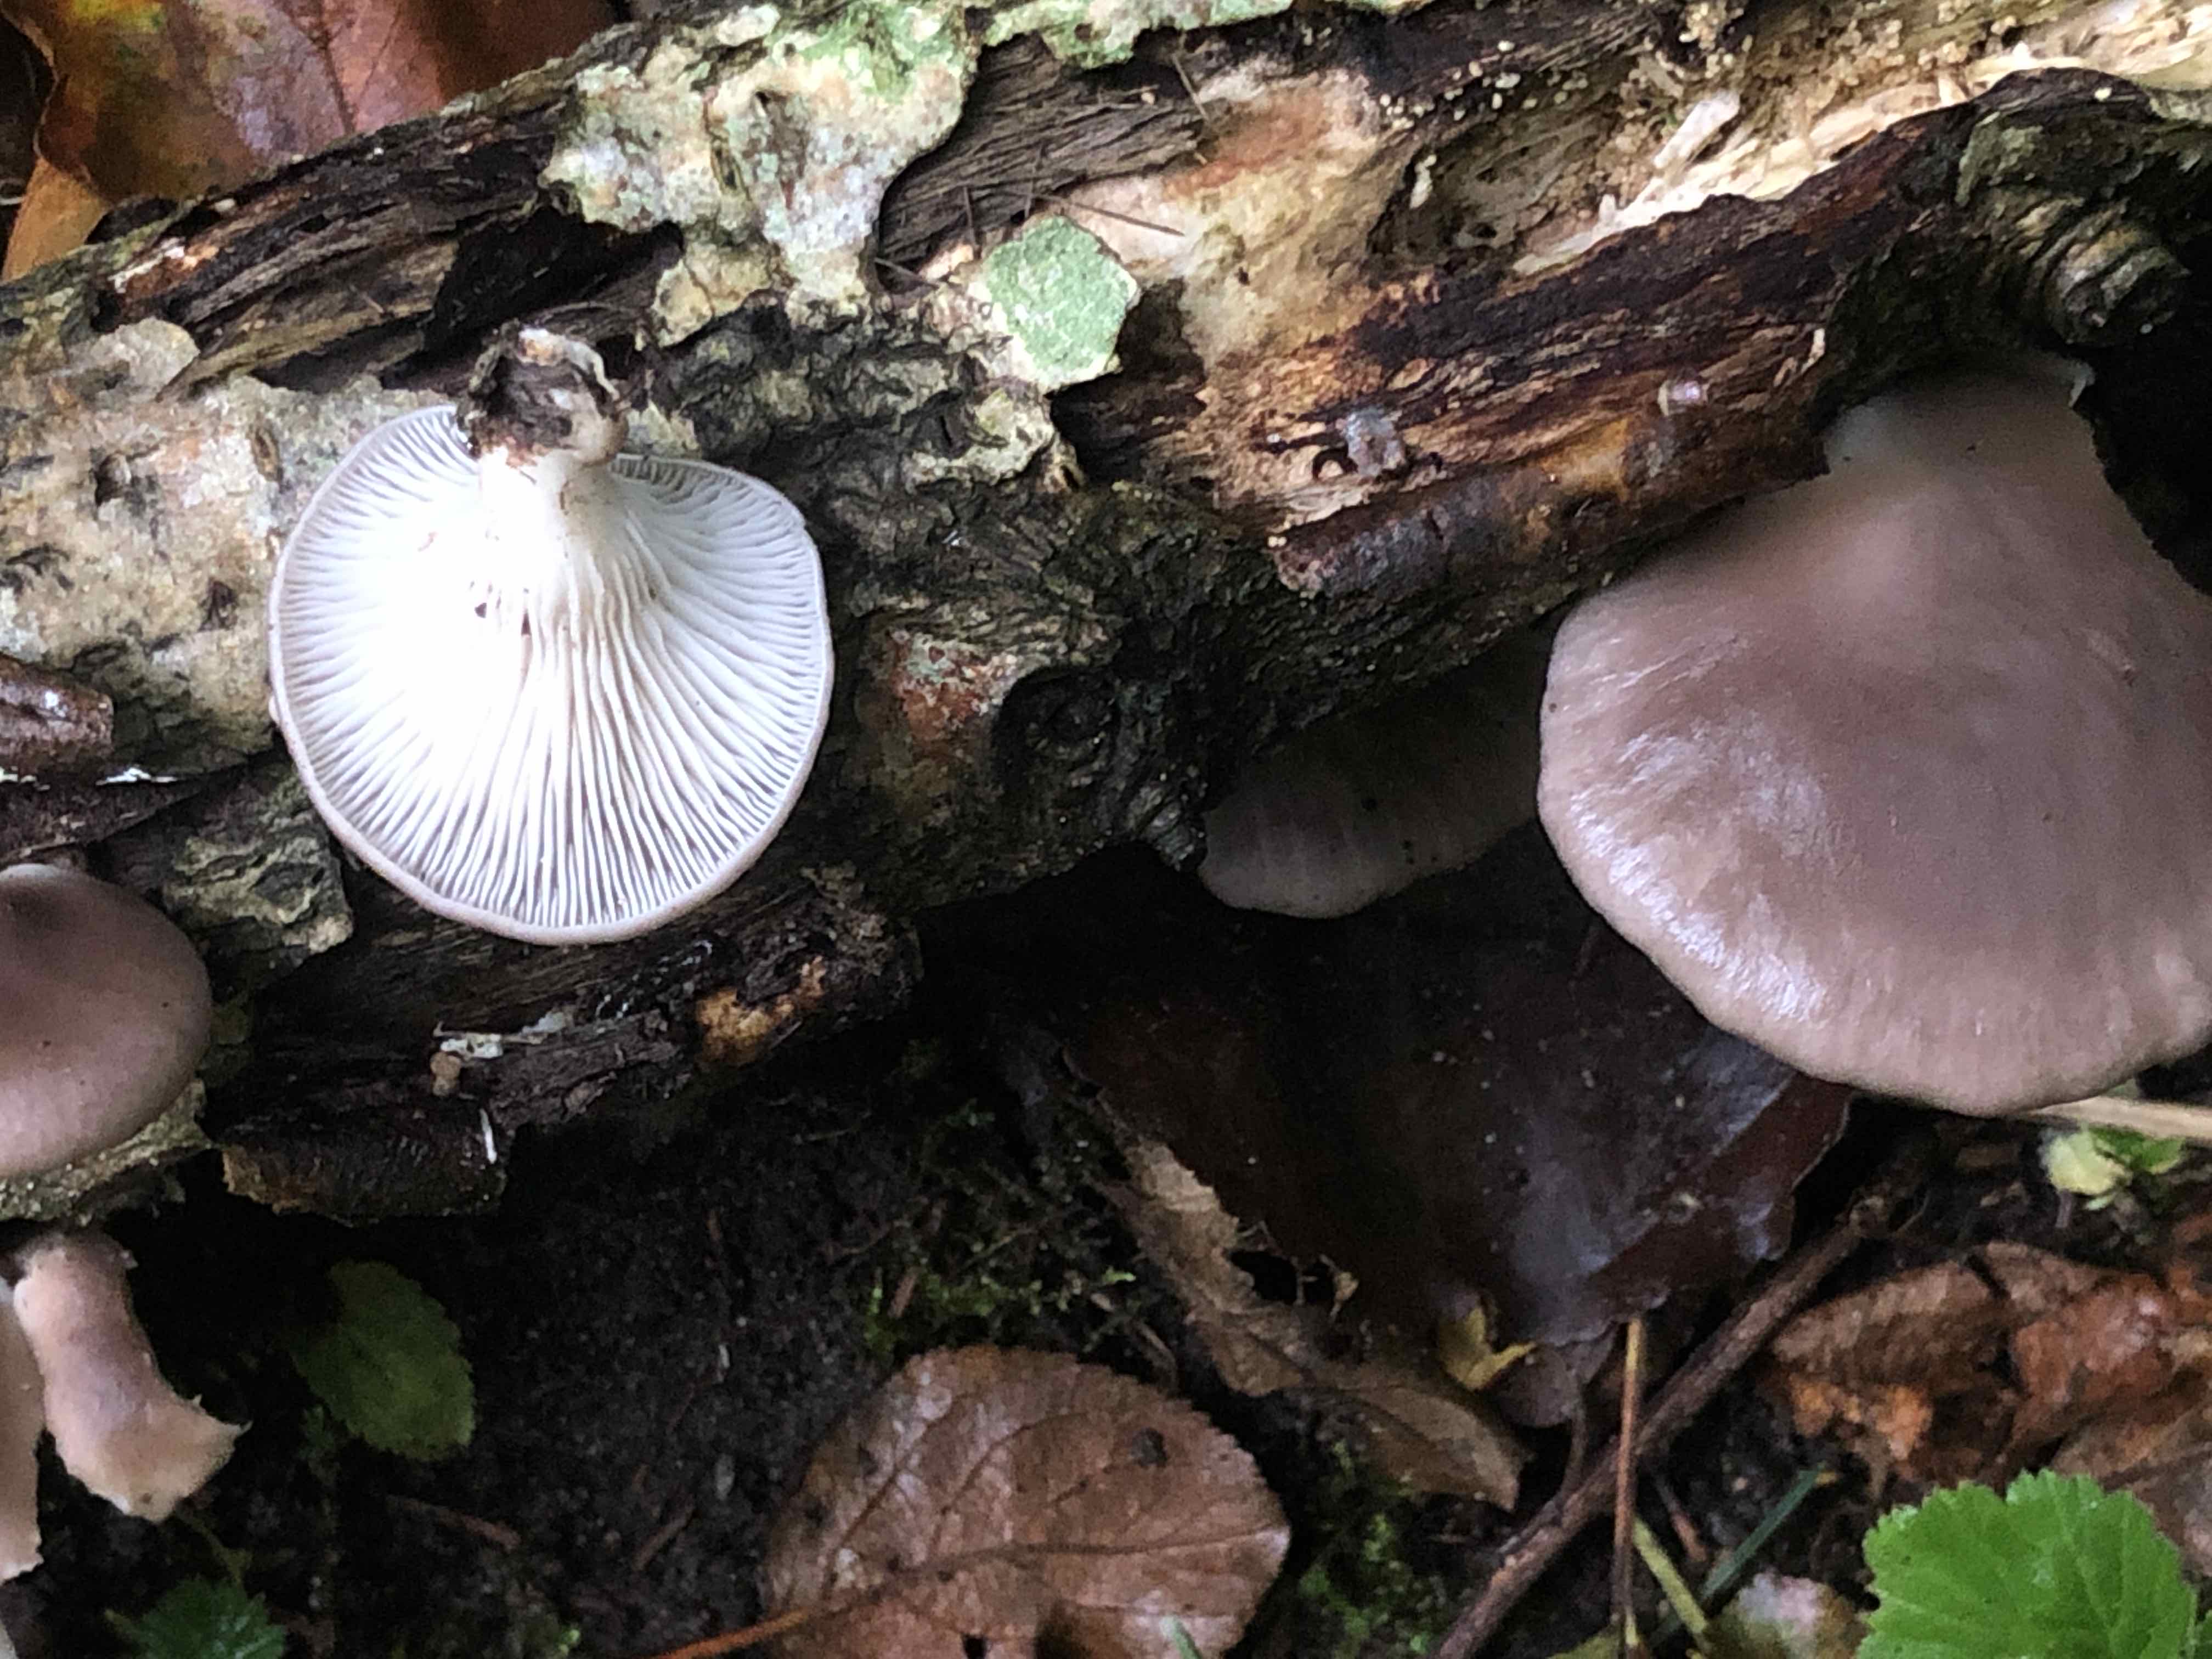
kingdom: Fungi
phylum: Basidiomycota
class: Agaricomycetes
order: Agaricales
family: Pleurotaceae
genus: Pleurotus
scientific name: Pleurotus ostreatus
